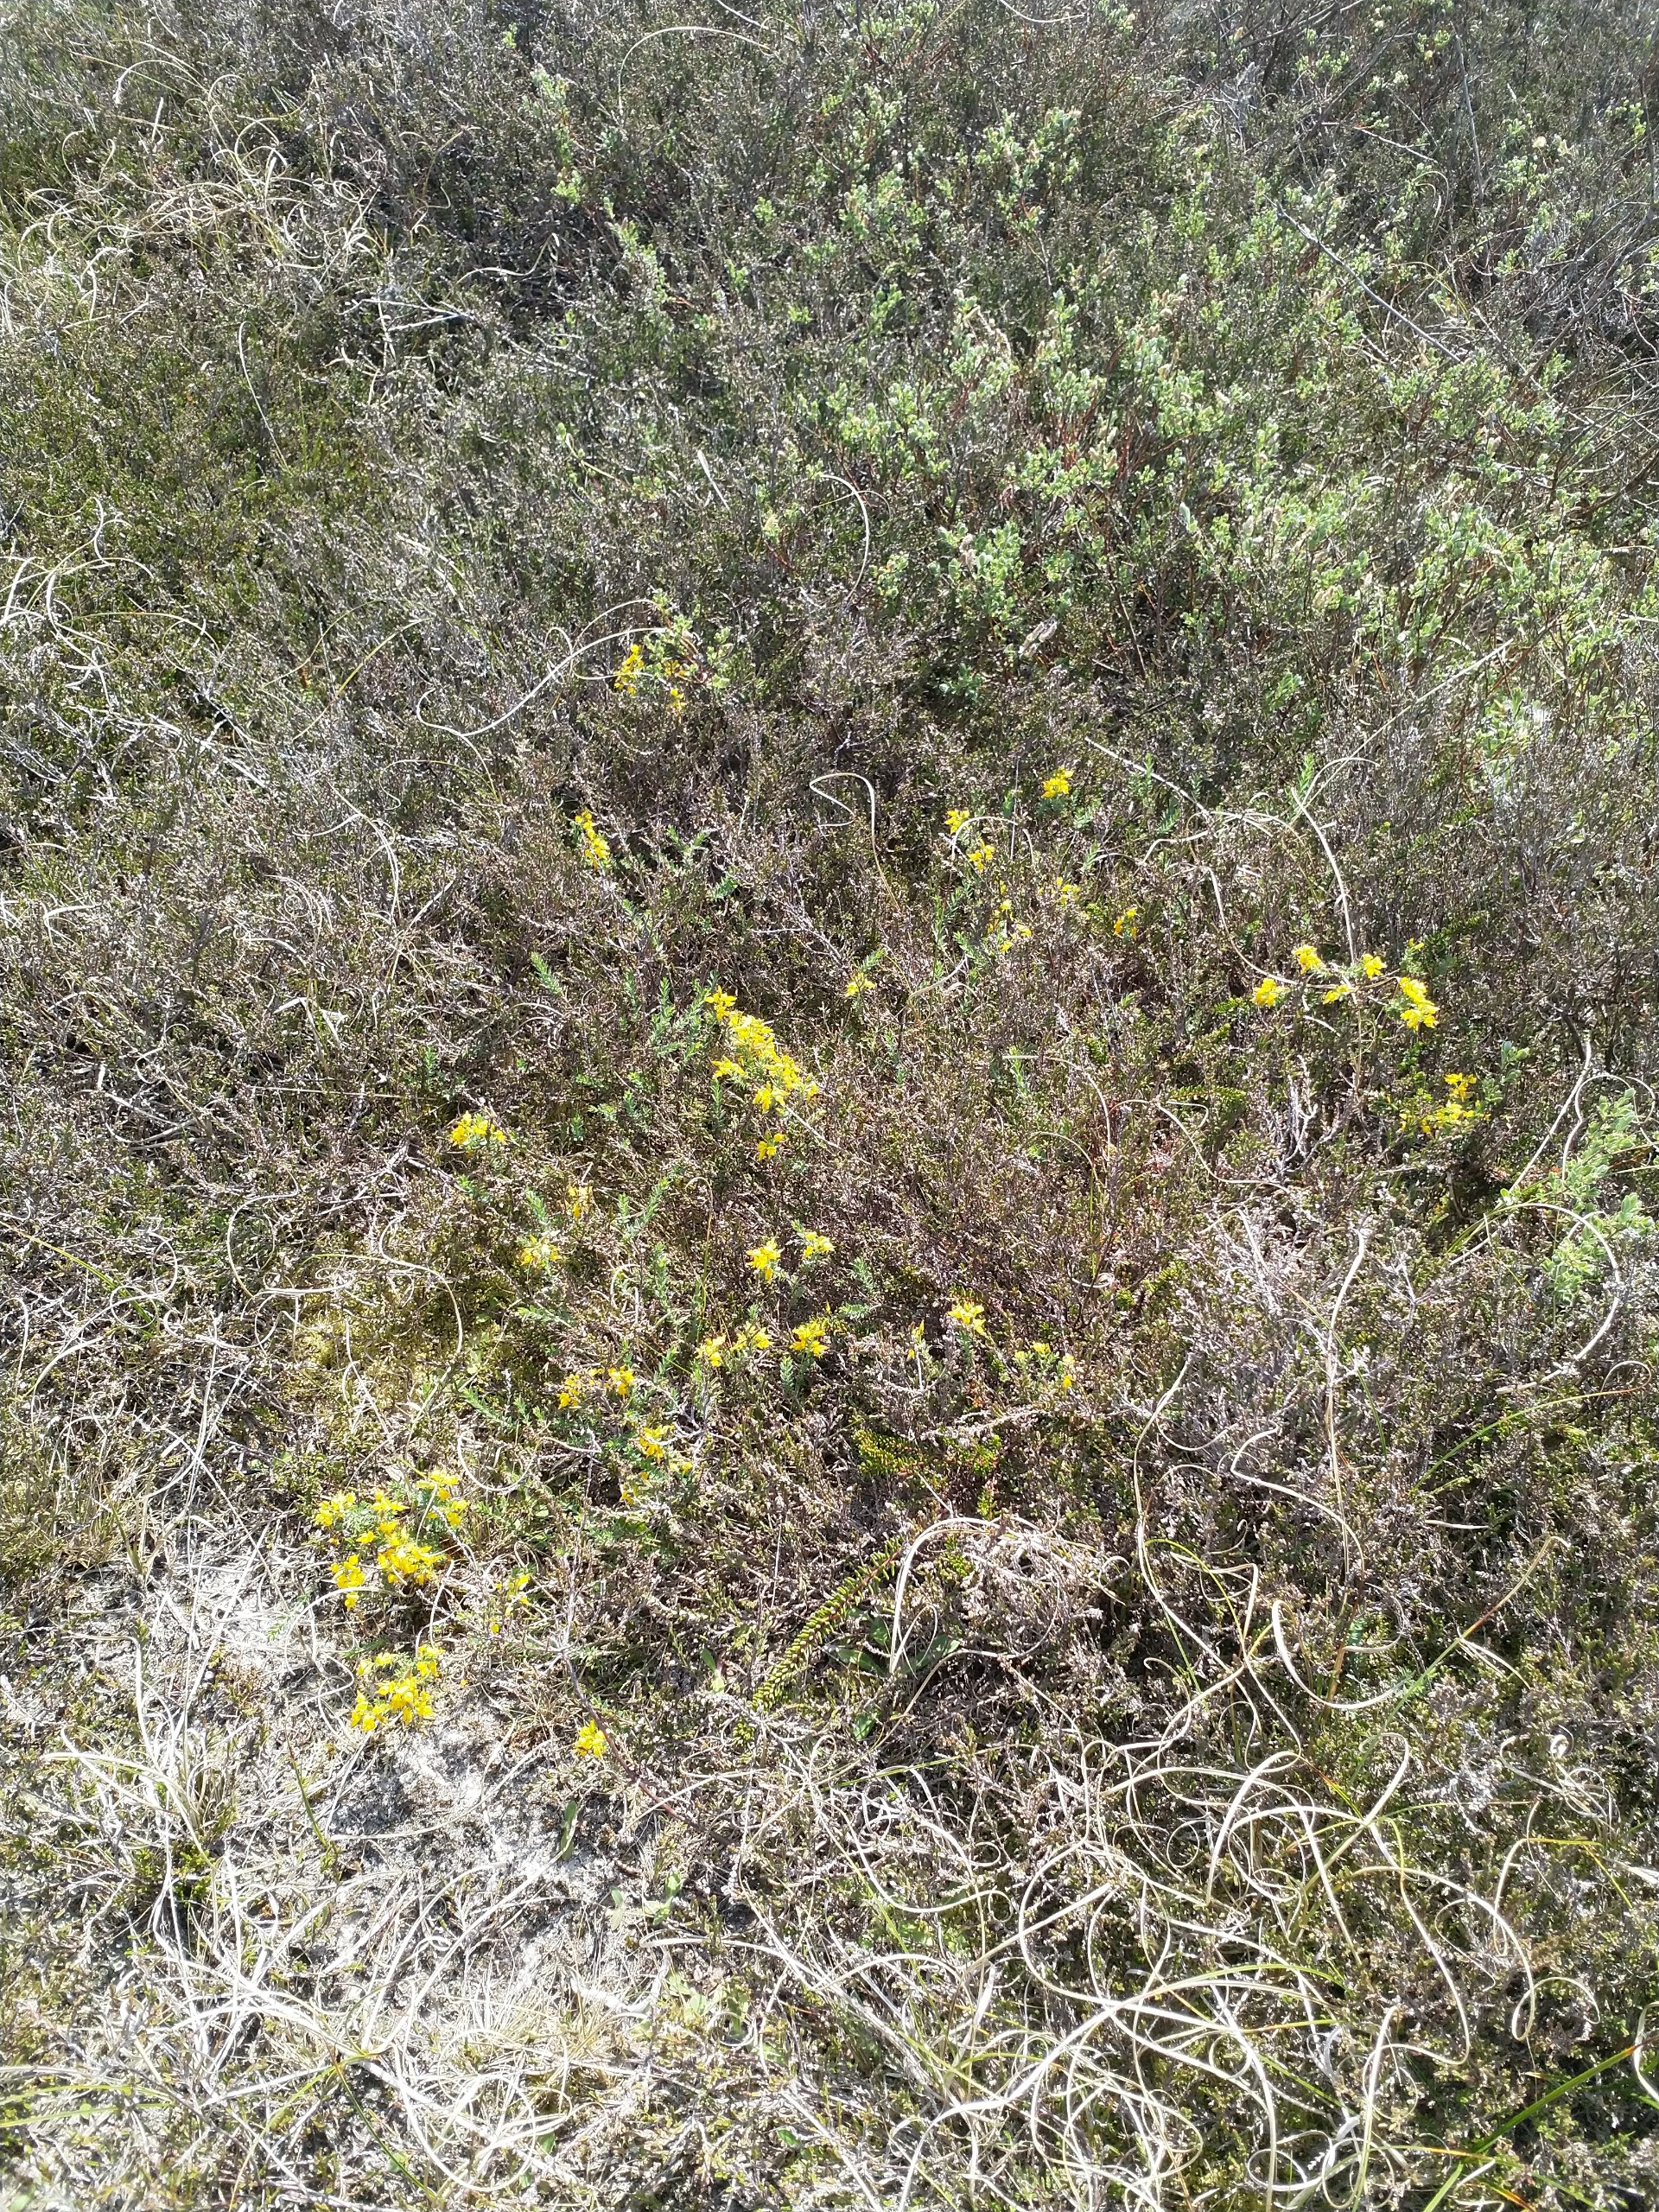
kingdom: Plantae
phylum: Tracheophyta
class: Magnoliopsida
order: Fabales
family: Fabaceae
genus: Genista
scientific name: Genista anglica
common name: Engelsk visse
